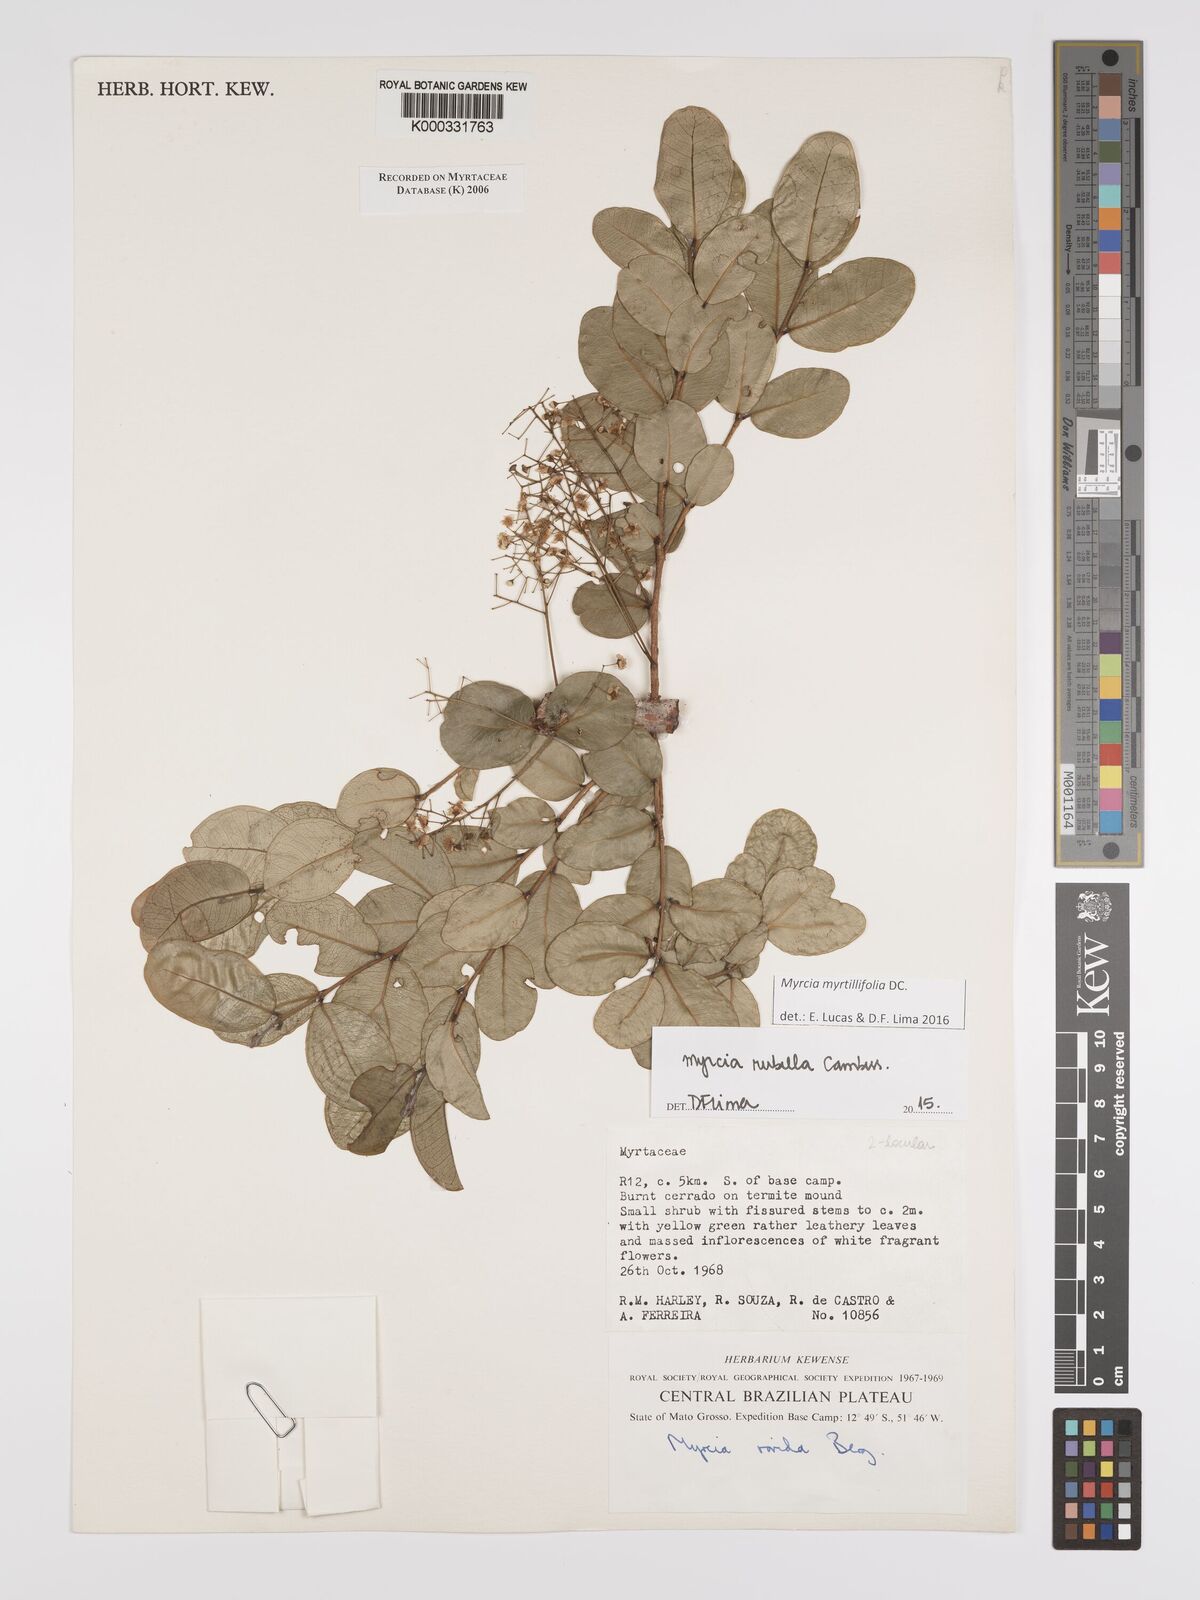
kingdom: Plantae
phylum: Tracheophyta
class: Magnoliopsida
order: Myrtales
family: Myrtaceae
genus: Myrcia
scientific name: Myrcia guianensis
